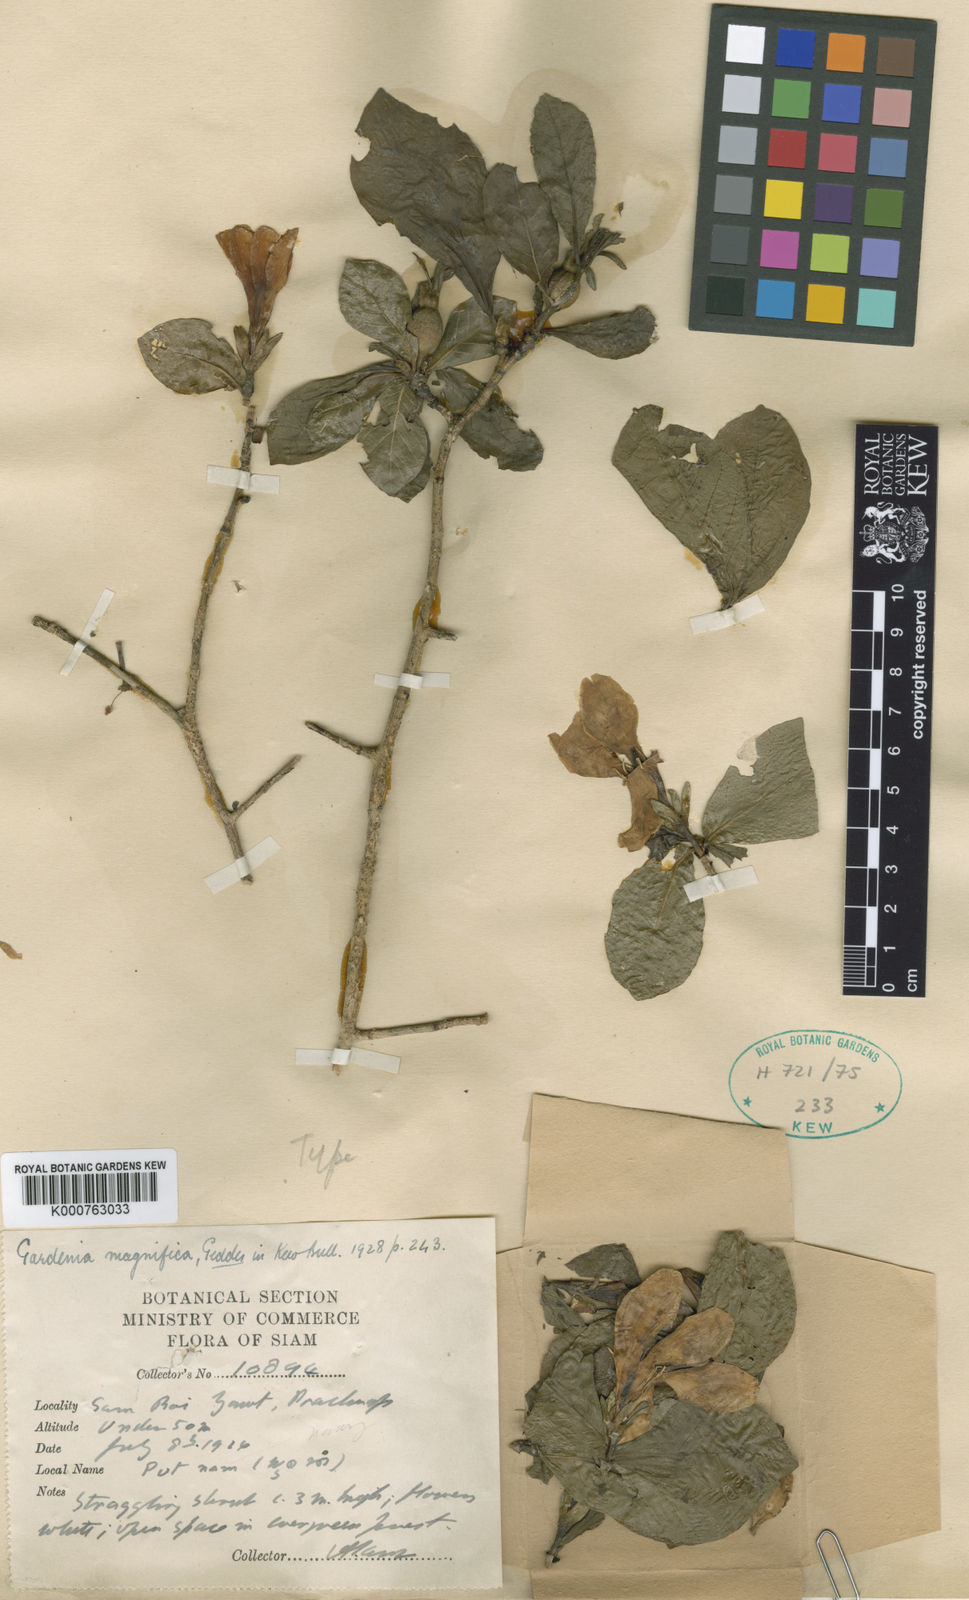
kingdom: Plantae
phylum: Tracheophyta
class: Magnoliopsida
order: Gentianales
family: Rubiaceae
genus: Gardenia
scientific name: Gardenia magnifica
